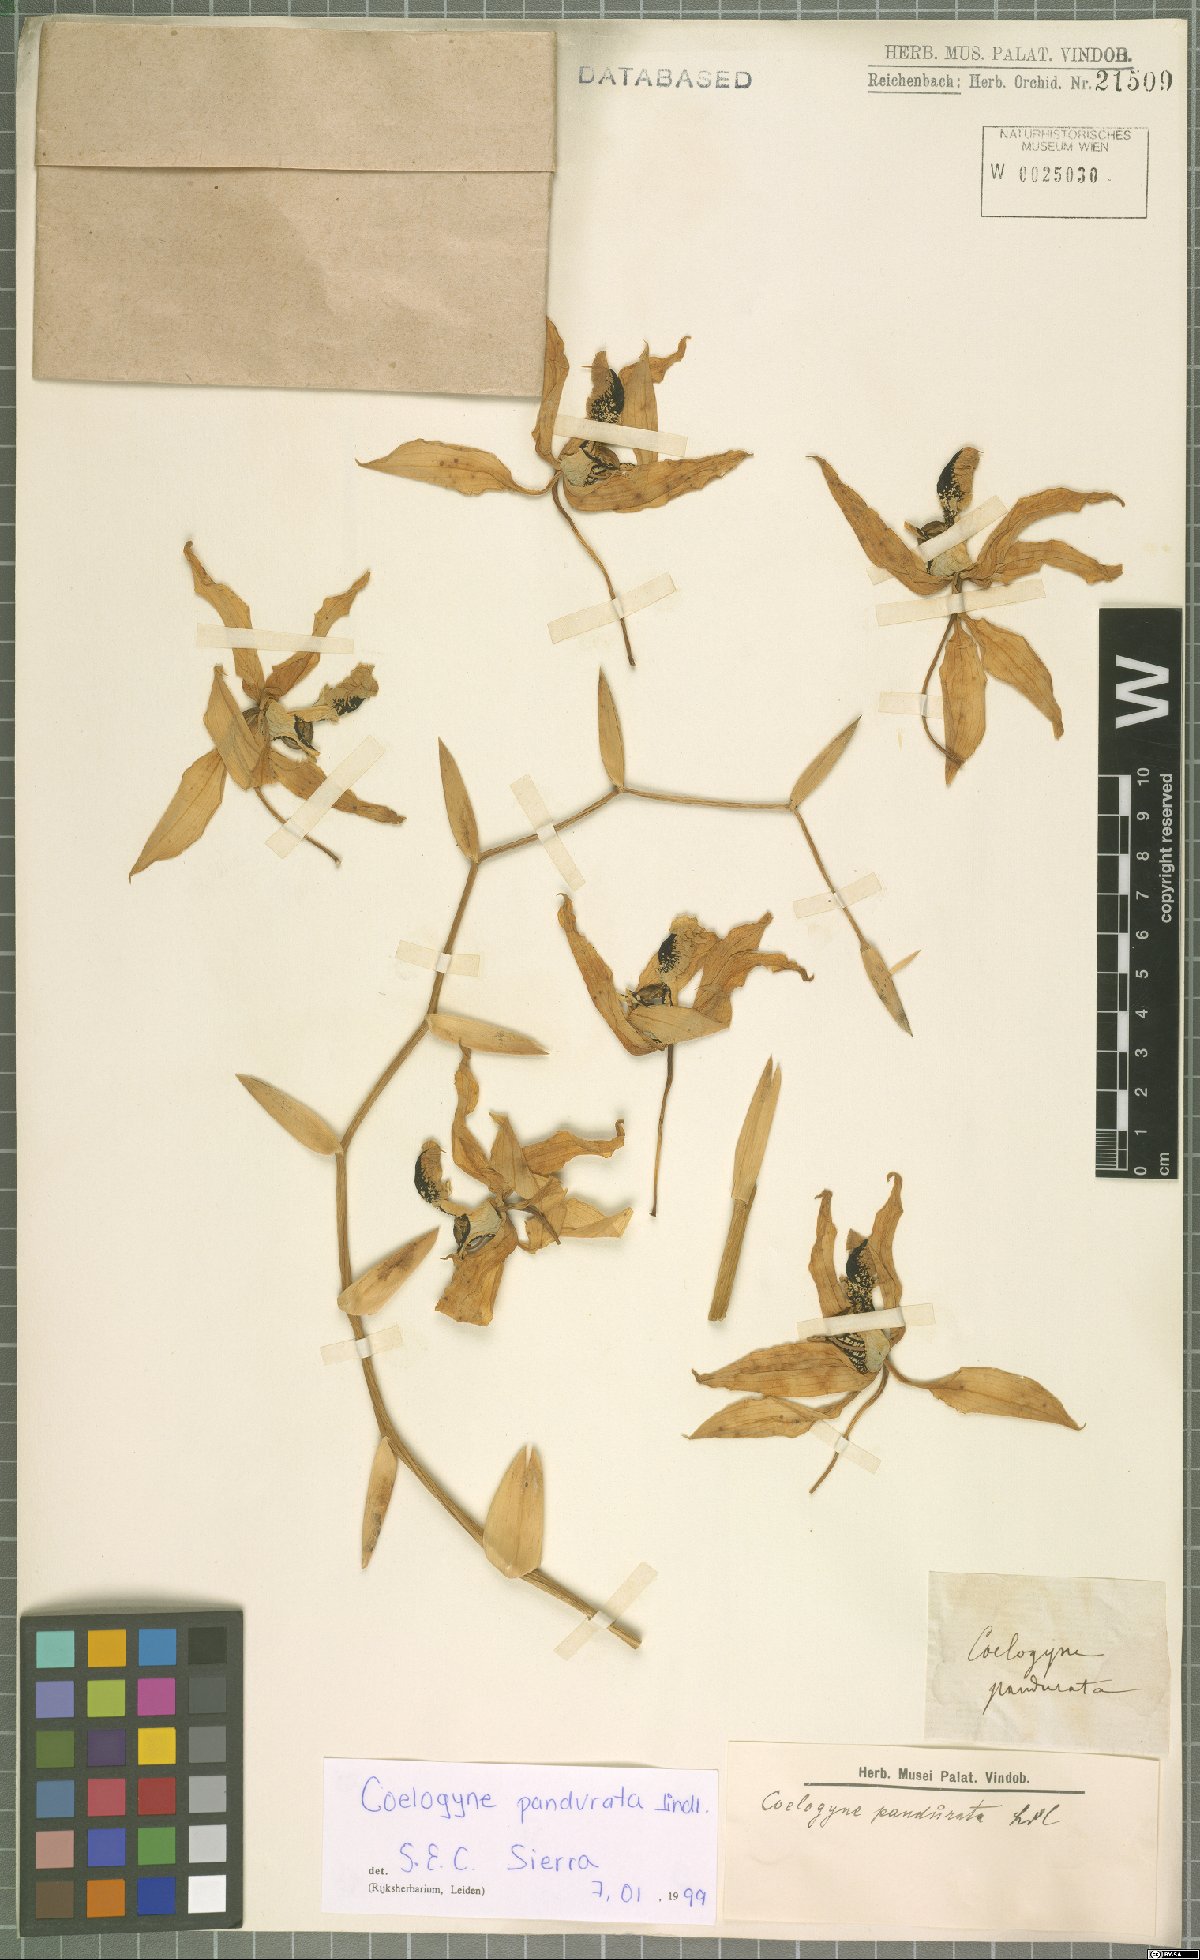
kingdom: Plantae
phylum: Tracheophyta
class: Liliopsida
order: Asparagales
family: Orchidaceae
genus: Coelogyne
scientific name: Coelogyne pandurata
